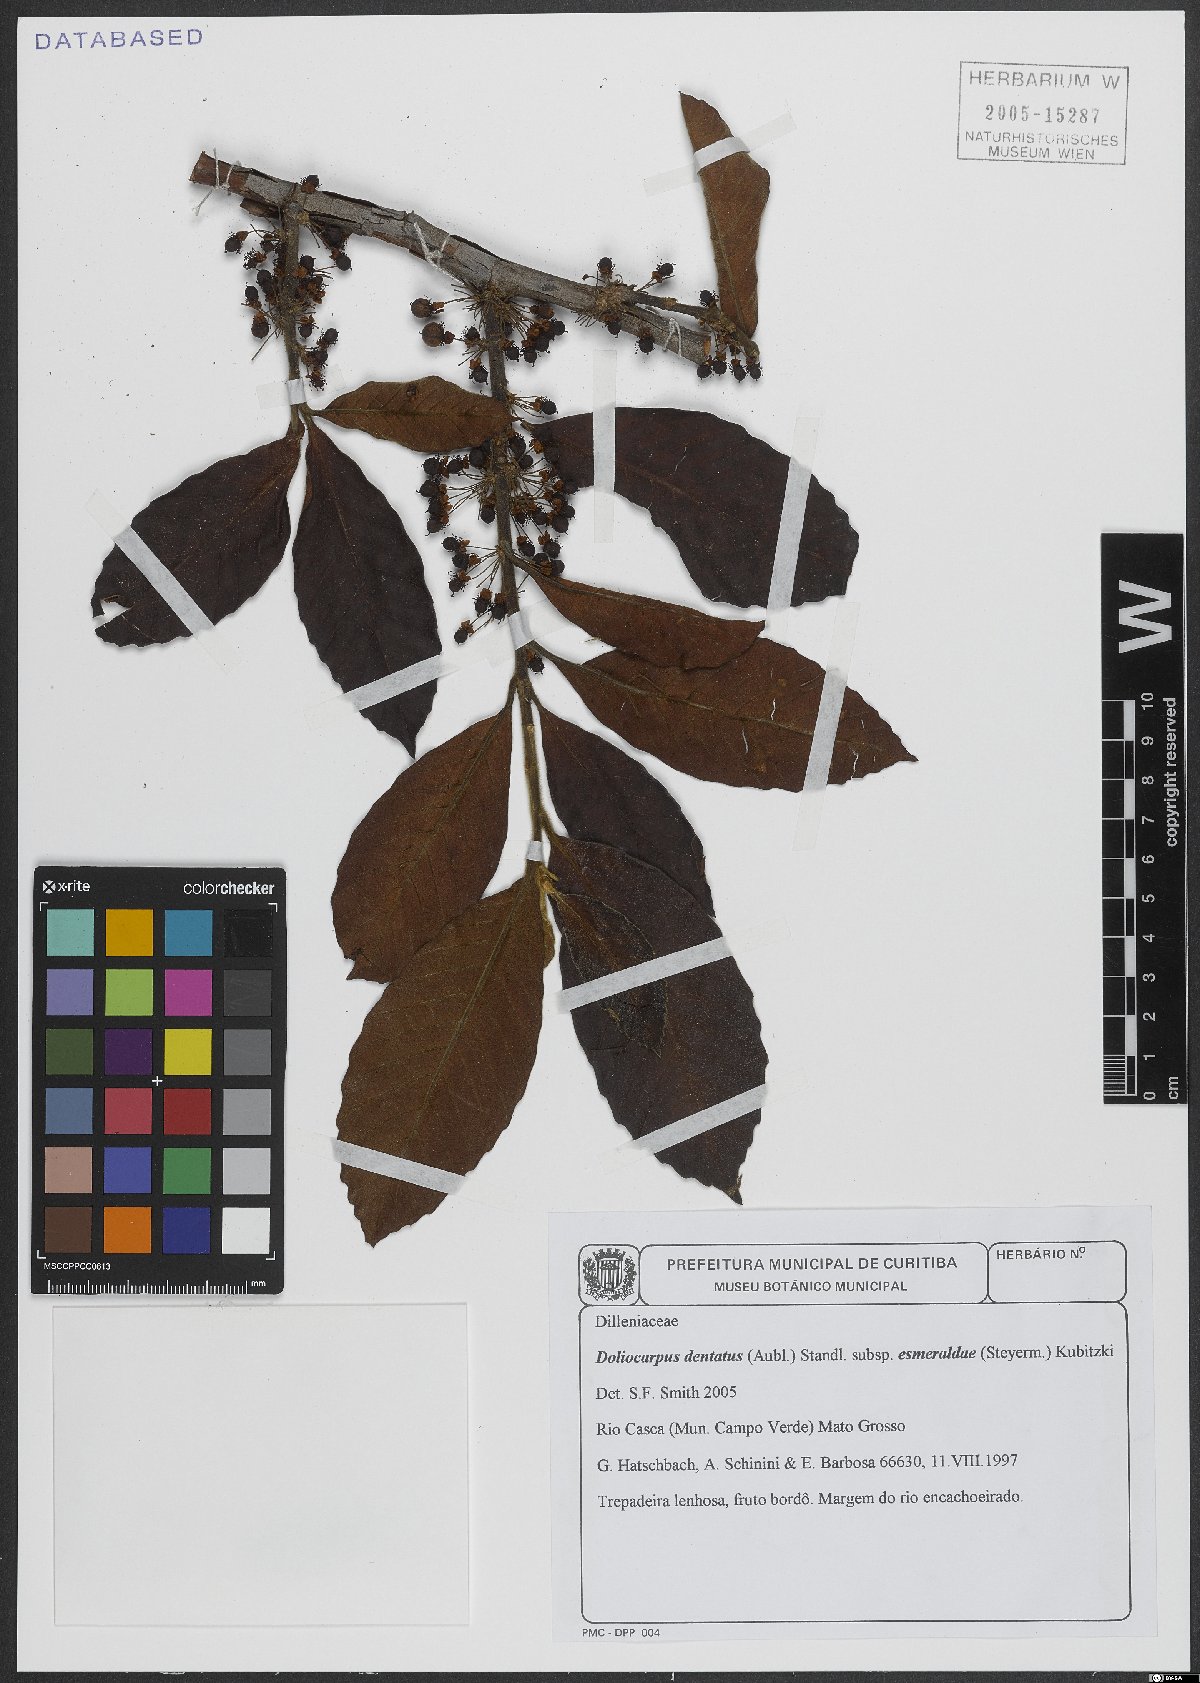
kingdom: Plantae
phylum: Tracheophyta
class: Magnoliopsida
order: Dilleniales
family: Dilleniaceae
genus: Doliocarpus
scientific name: Doliocarpus dentatus
